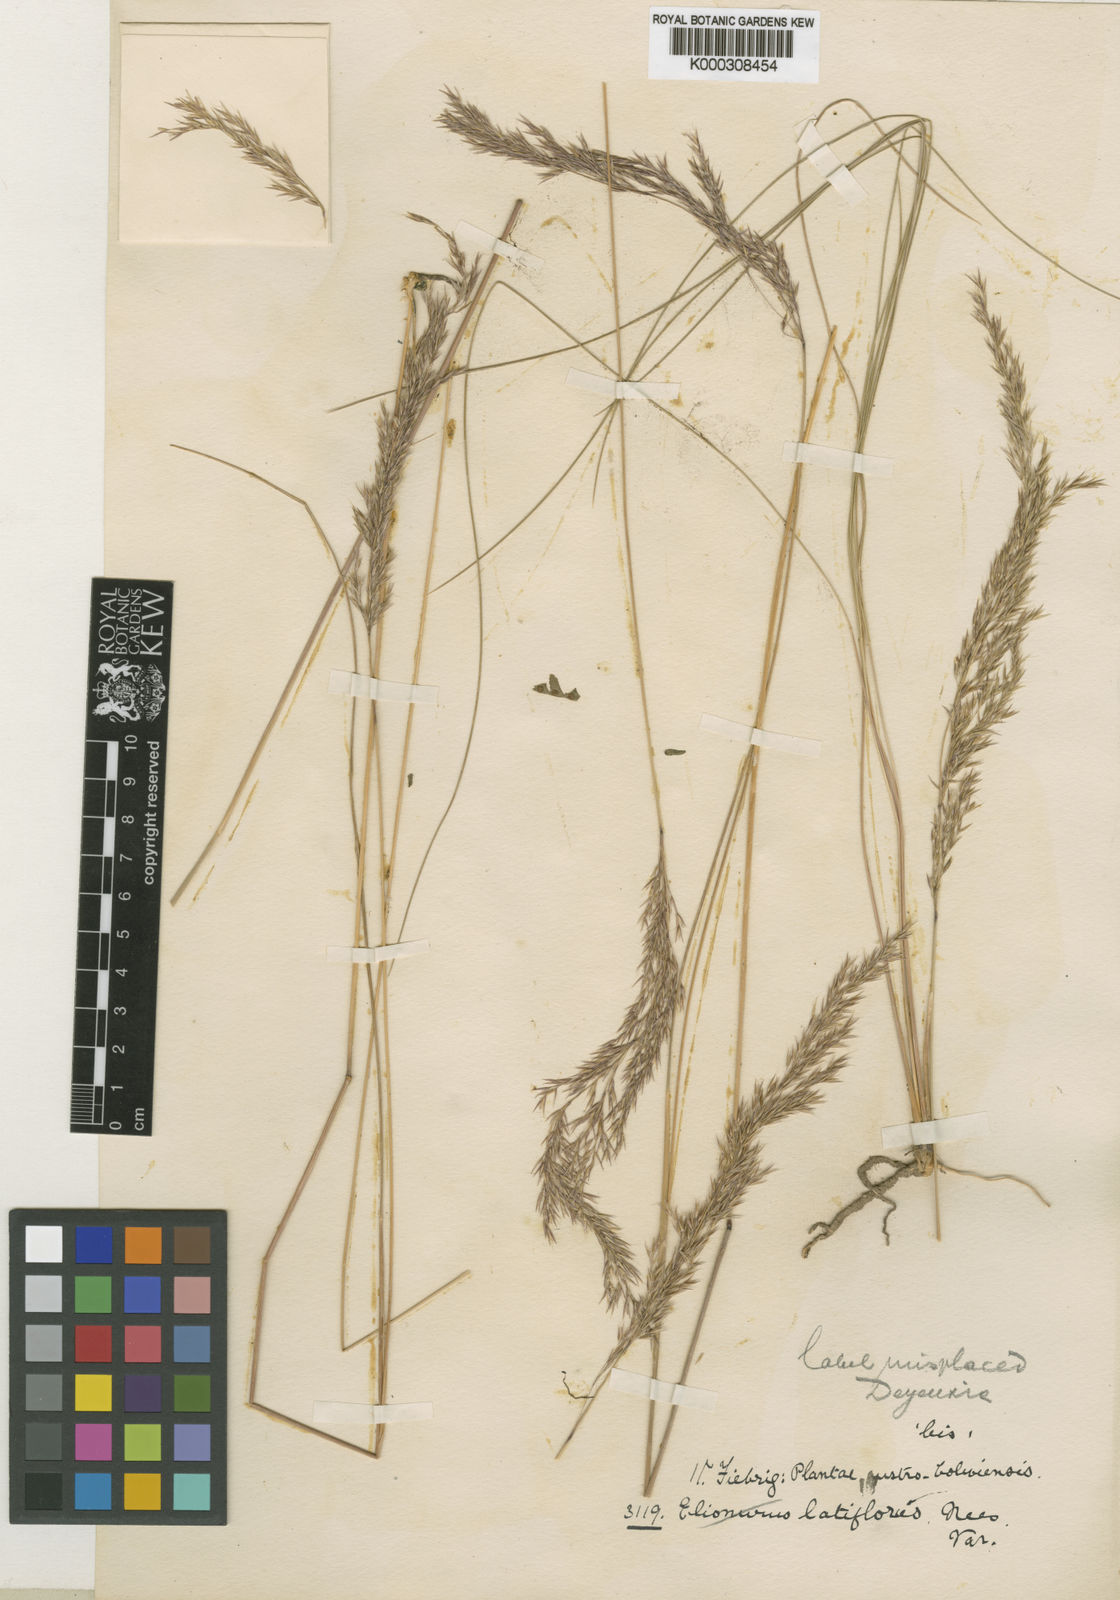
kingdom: Plantae
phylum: Tracheophyta
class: Liliopsida
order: Poales
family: Poaceae
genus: Cinnagrostis
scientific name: Cinnagrostis tarmensis
